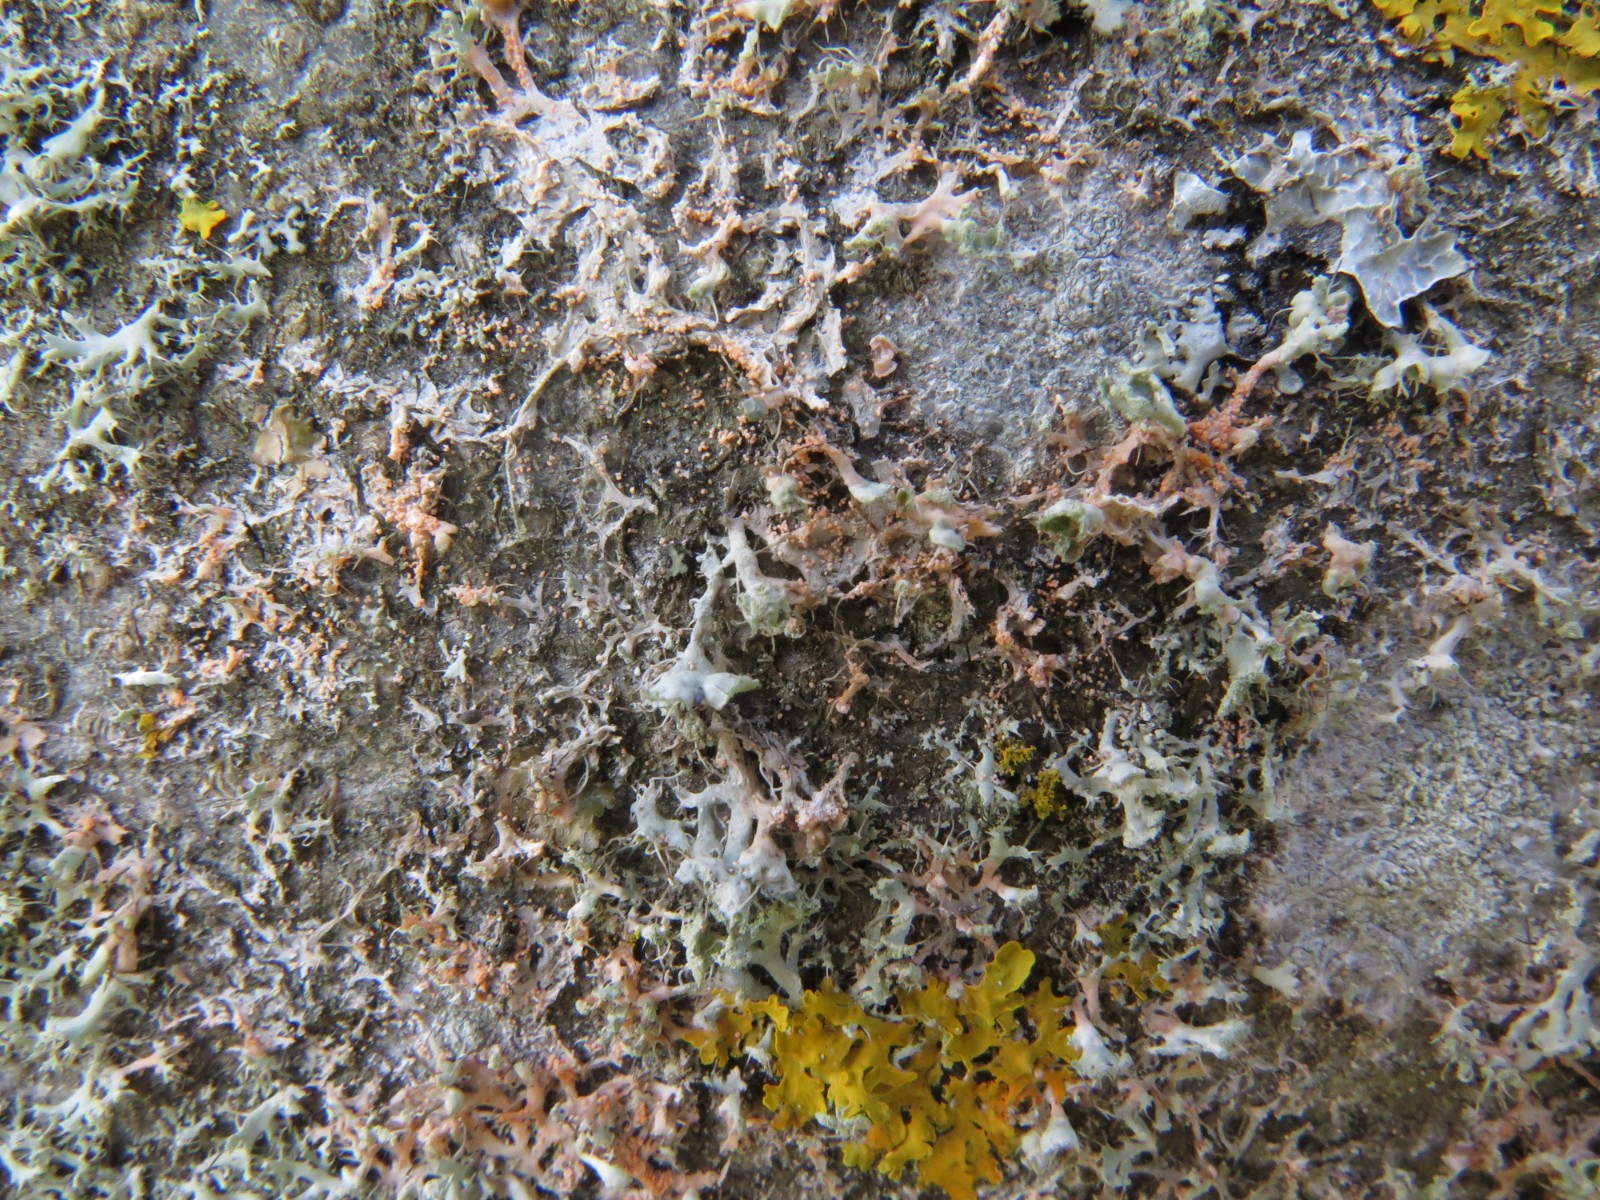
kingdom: Fungi
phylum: Basidiomycota
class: Agaricomycetes
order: Corticiales
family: Corticiaceae
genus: Erythricium
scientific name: Erythricium aurantiacum
